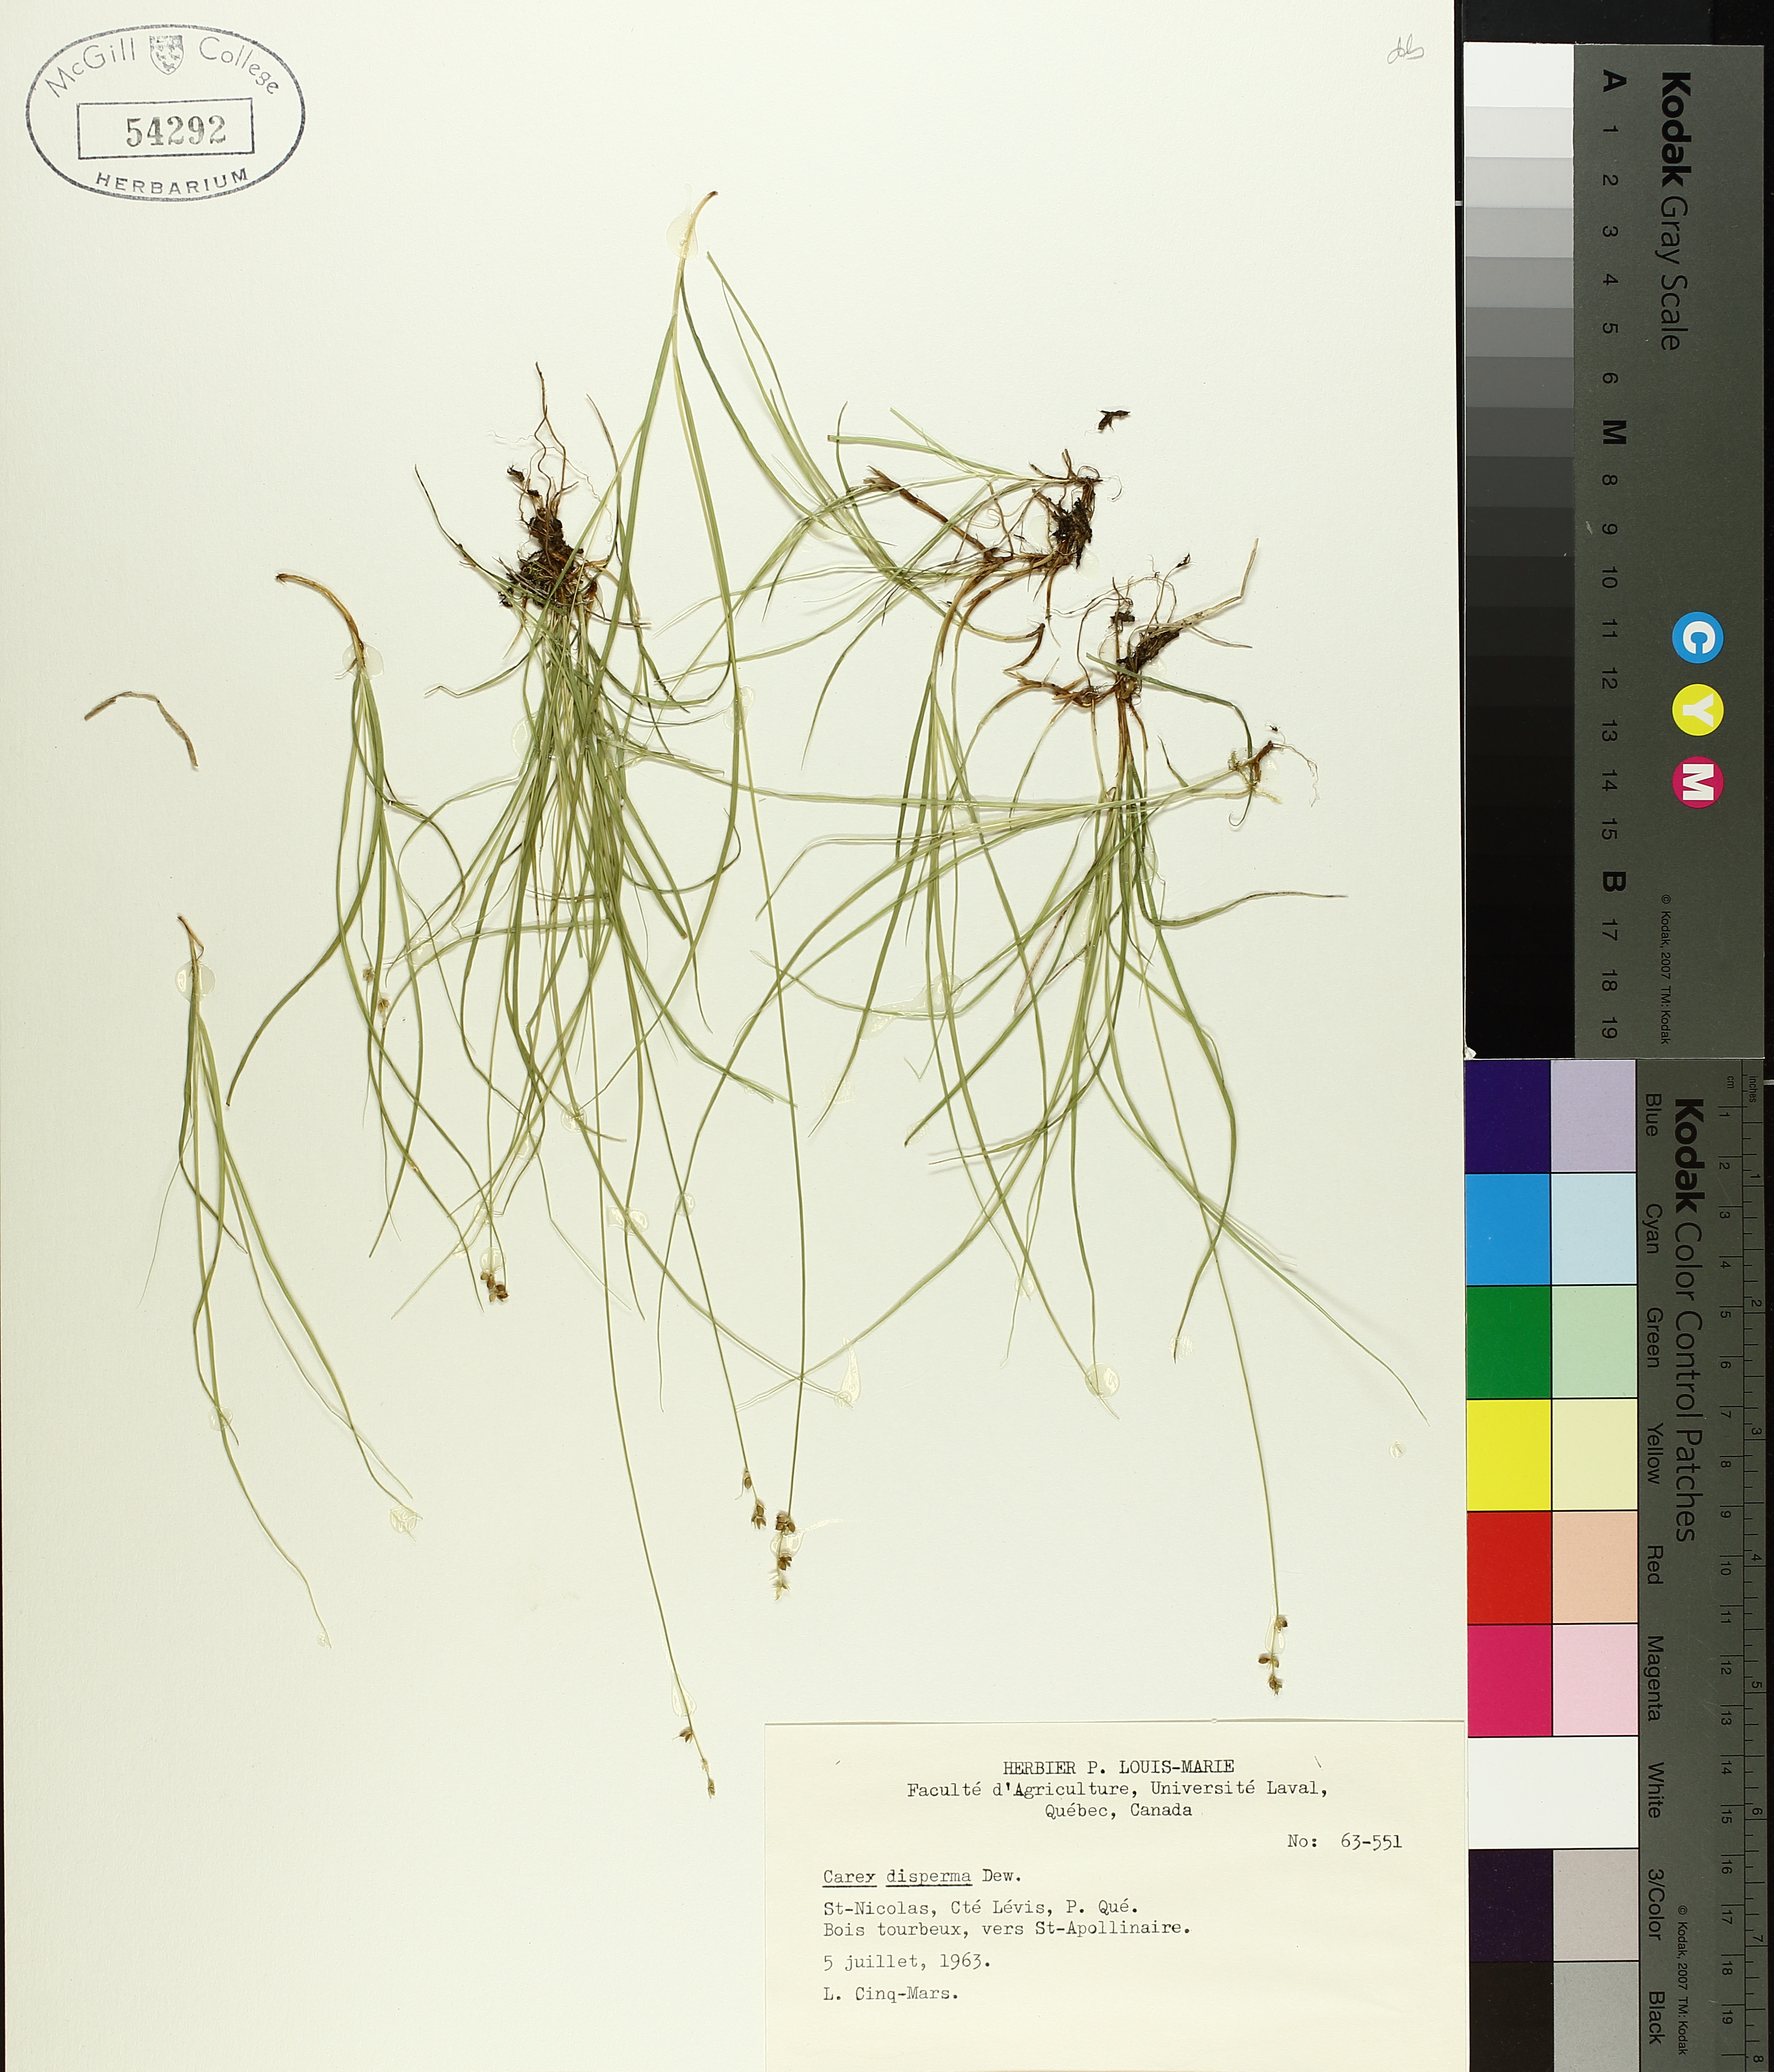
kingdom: Plantae
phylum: Tracheophyta
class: Liliopsida
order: Poales
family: Cyperaceae
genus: Carex
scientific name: Carex disperma
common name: Short-leaved sedge
